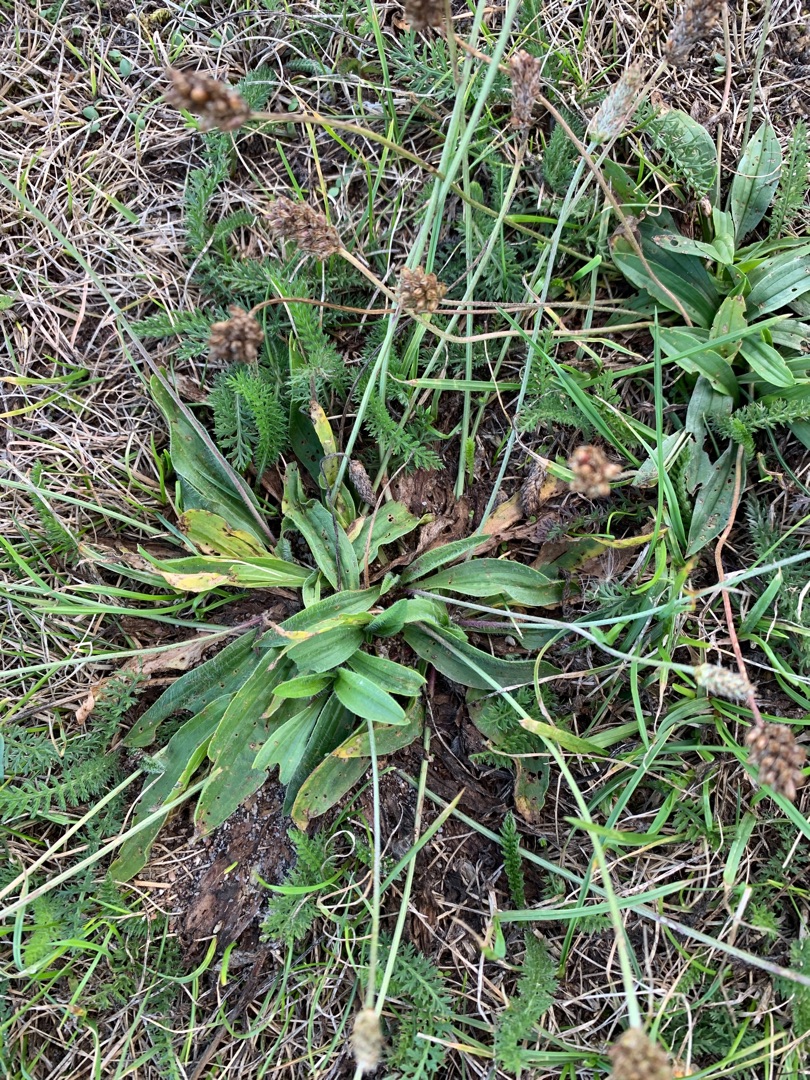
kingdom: Plantae
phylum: Tracheophyta
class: Magnoliopsida
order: Lamiales
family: Plantaginaceae
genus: Plantago
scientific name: Plantago lanceolata
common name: Lancet-vejbred
